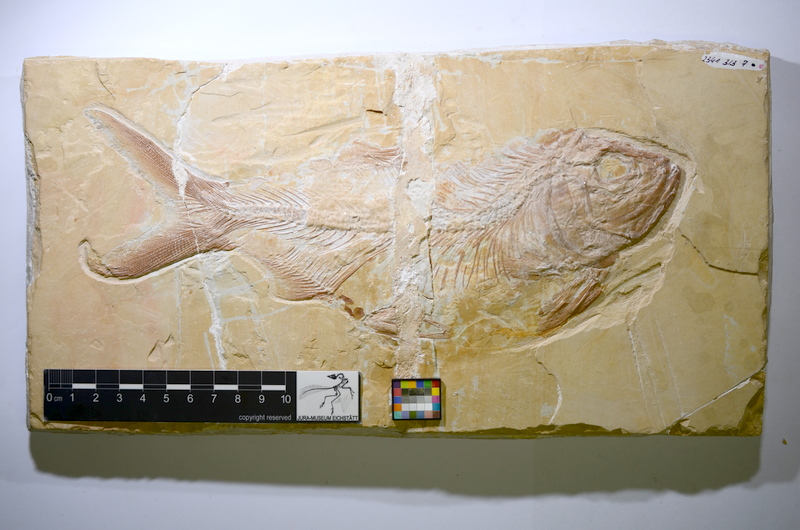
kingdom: Animalia
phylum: Chordata
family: Eurycormidae
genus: Eurycormus
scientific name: Eurycormus speciosus
